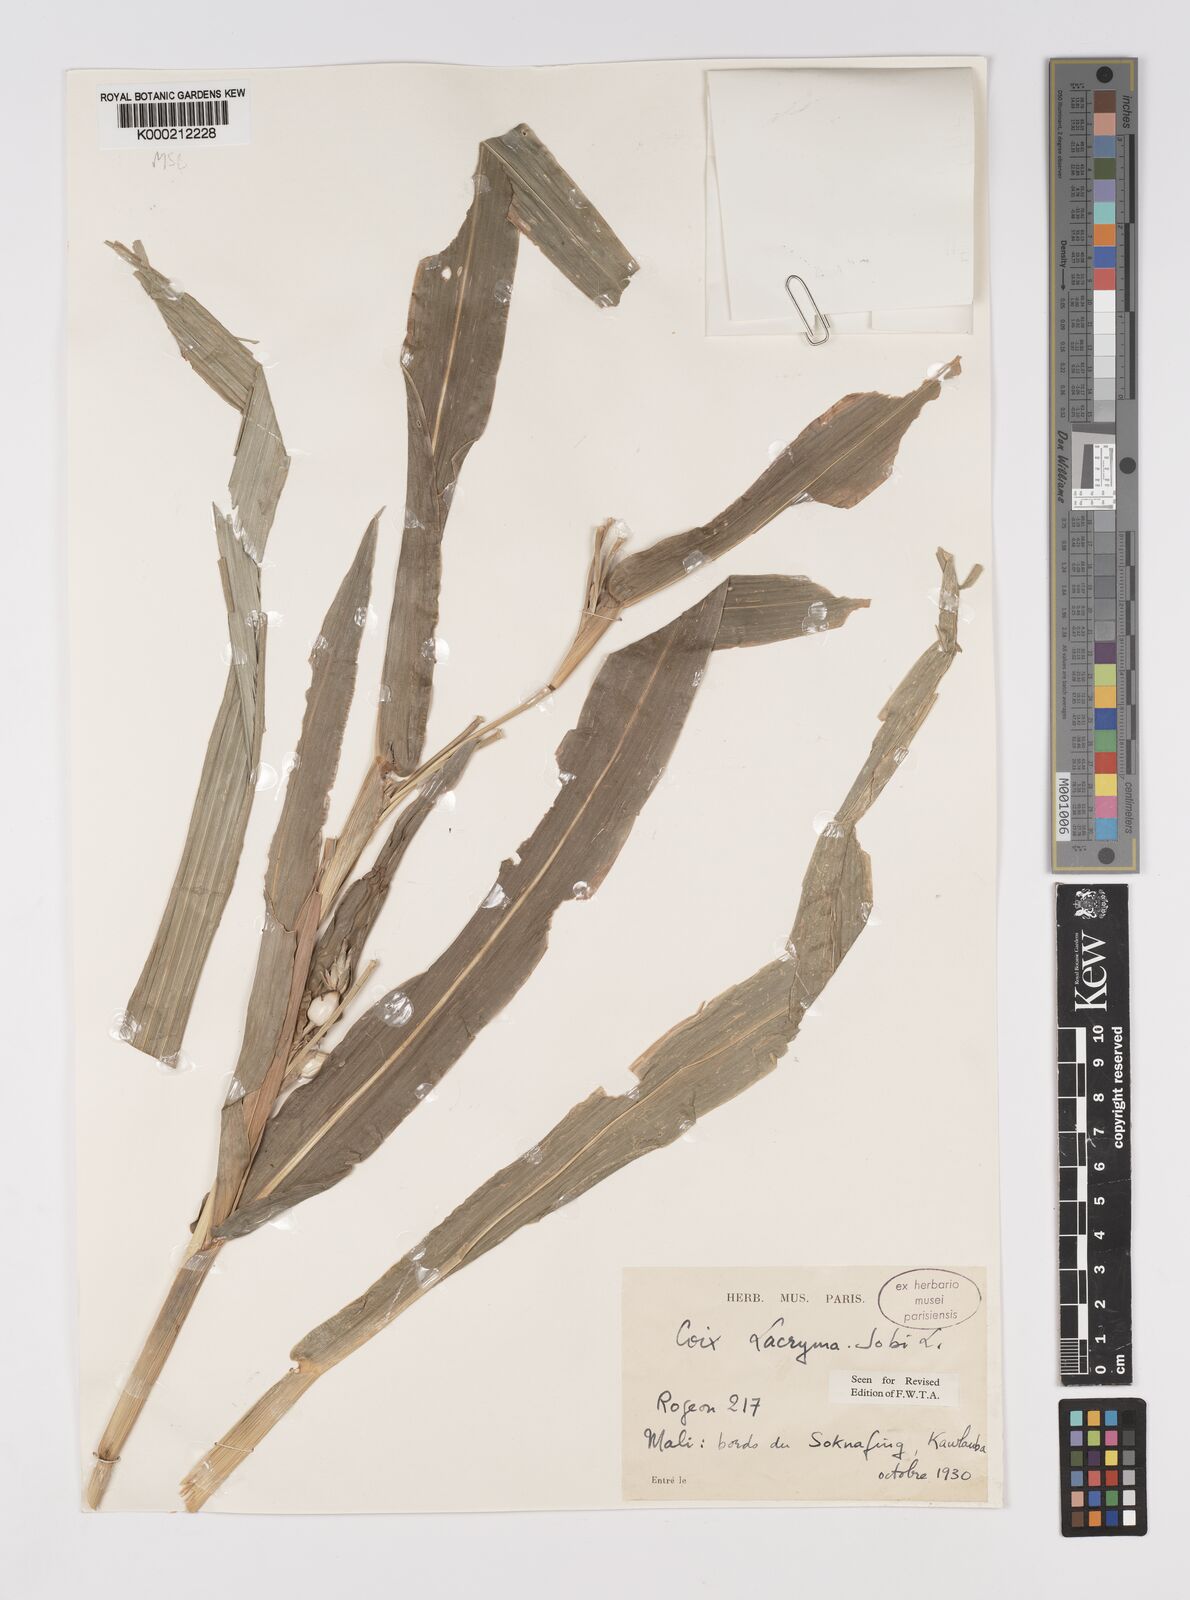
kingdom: Plantae
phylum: Tracheophyta
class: Liliopsida
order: Poales
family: Poaceae
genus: Coix
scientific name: Coix lacryma-jobi
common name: Job's tears
